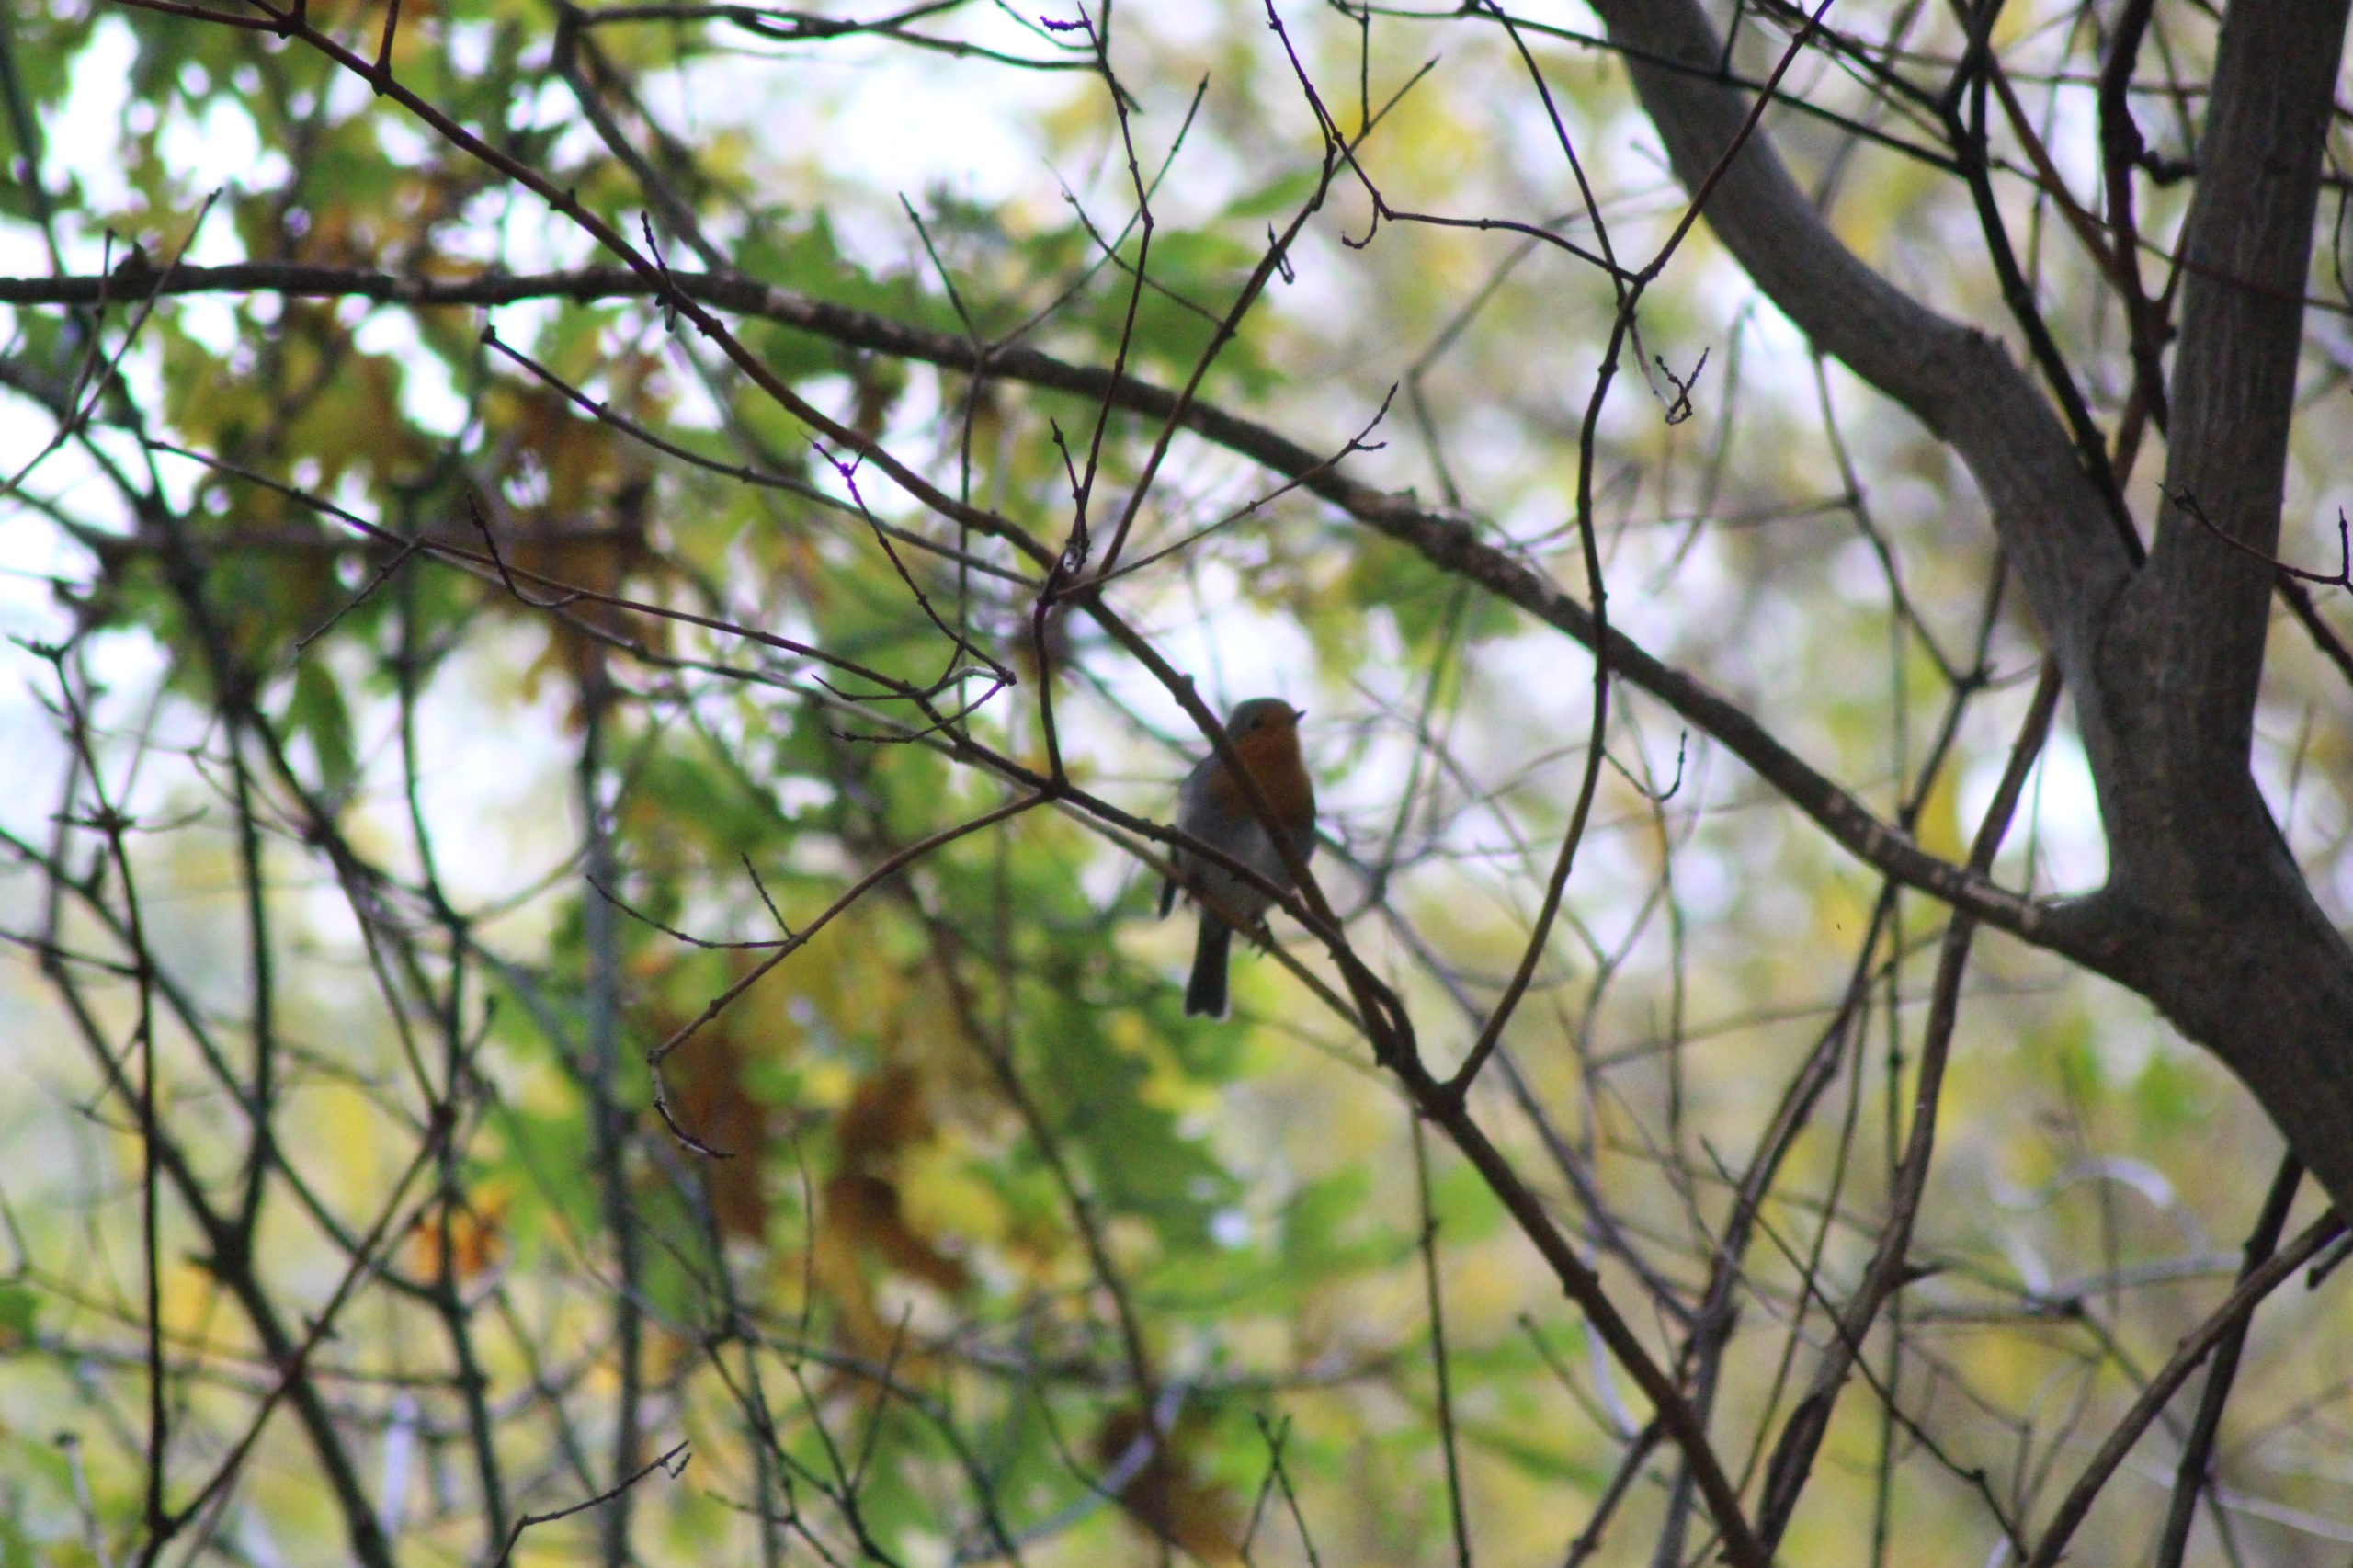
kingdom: Animalia
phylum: Chordata
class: Aves
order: Passeriformes
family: Muscicapidae
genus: Erithacus
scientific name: Erithacus rubecula
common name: Rødhals/rødkælk
